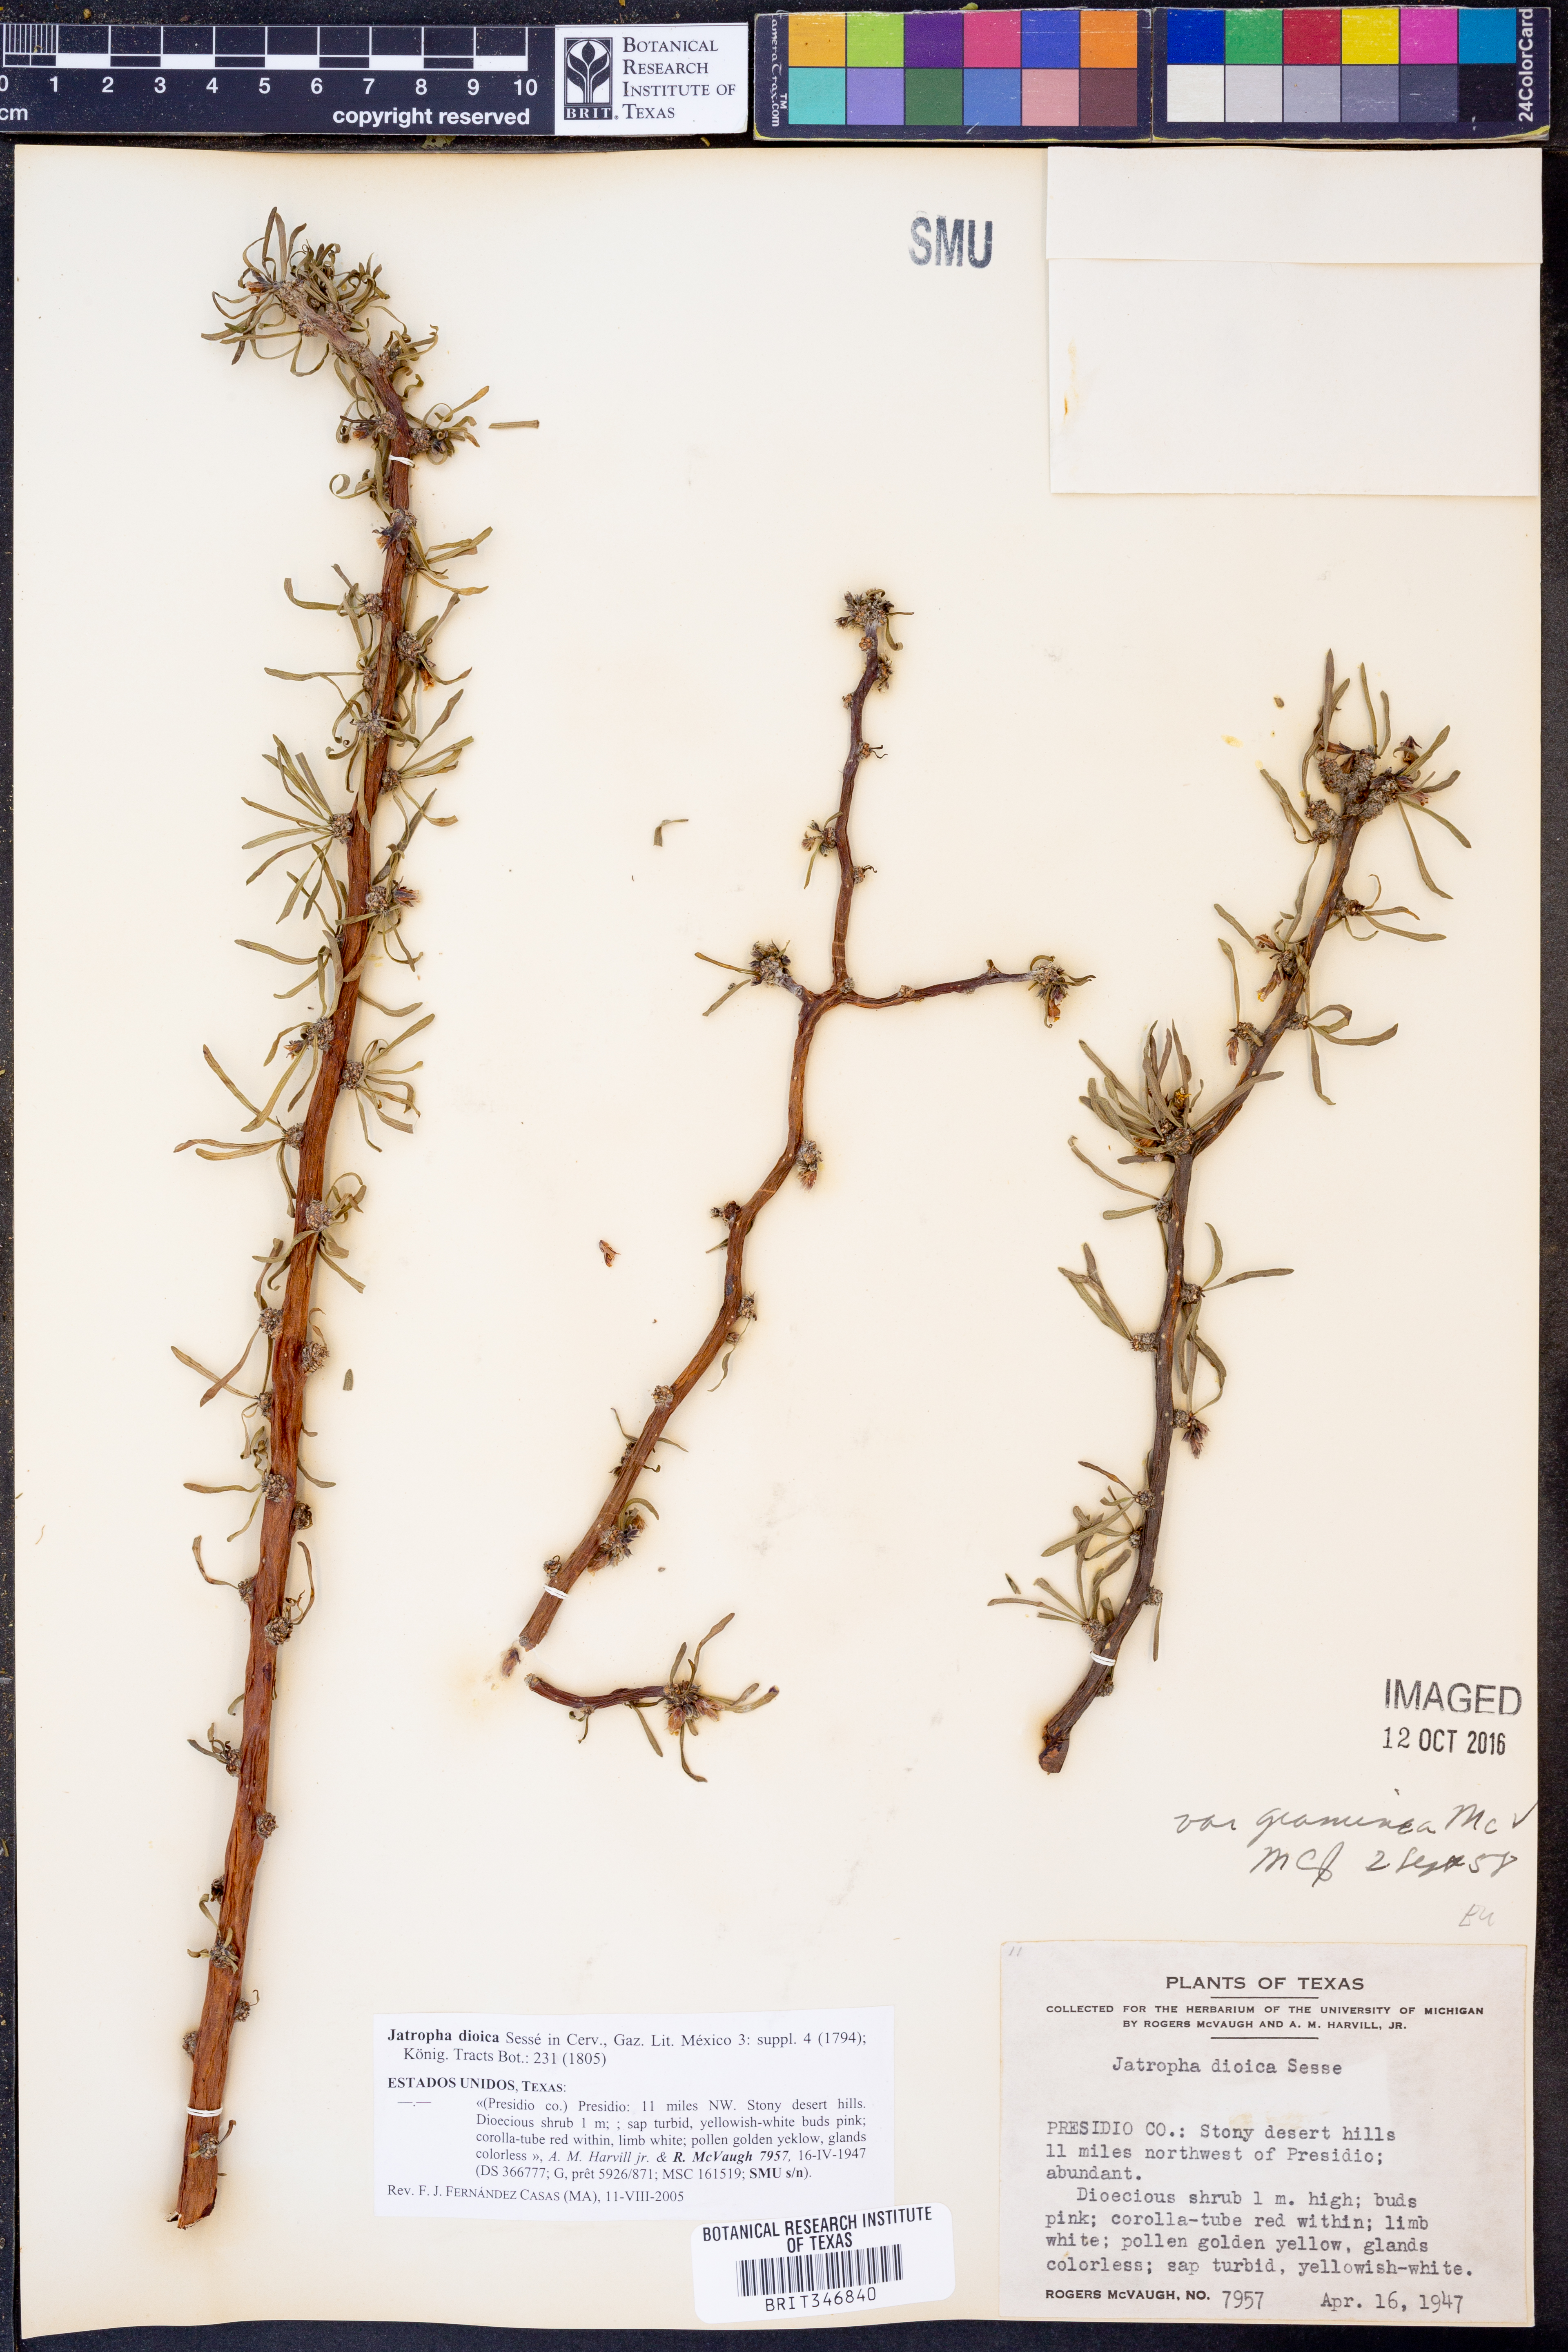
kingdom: Plantae
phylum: Tracheophyta
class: Magnoliopsida
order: Malpighiales
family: Euphorbiaceae
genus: Jatropha
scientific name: Jatropha dioica
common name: Leatherstem
